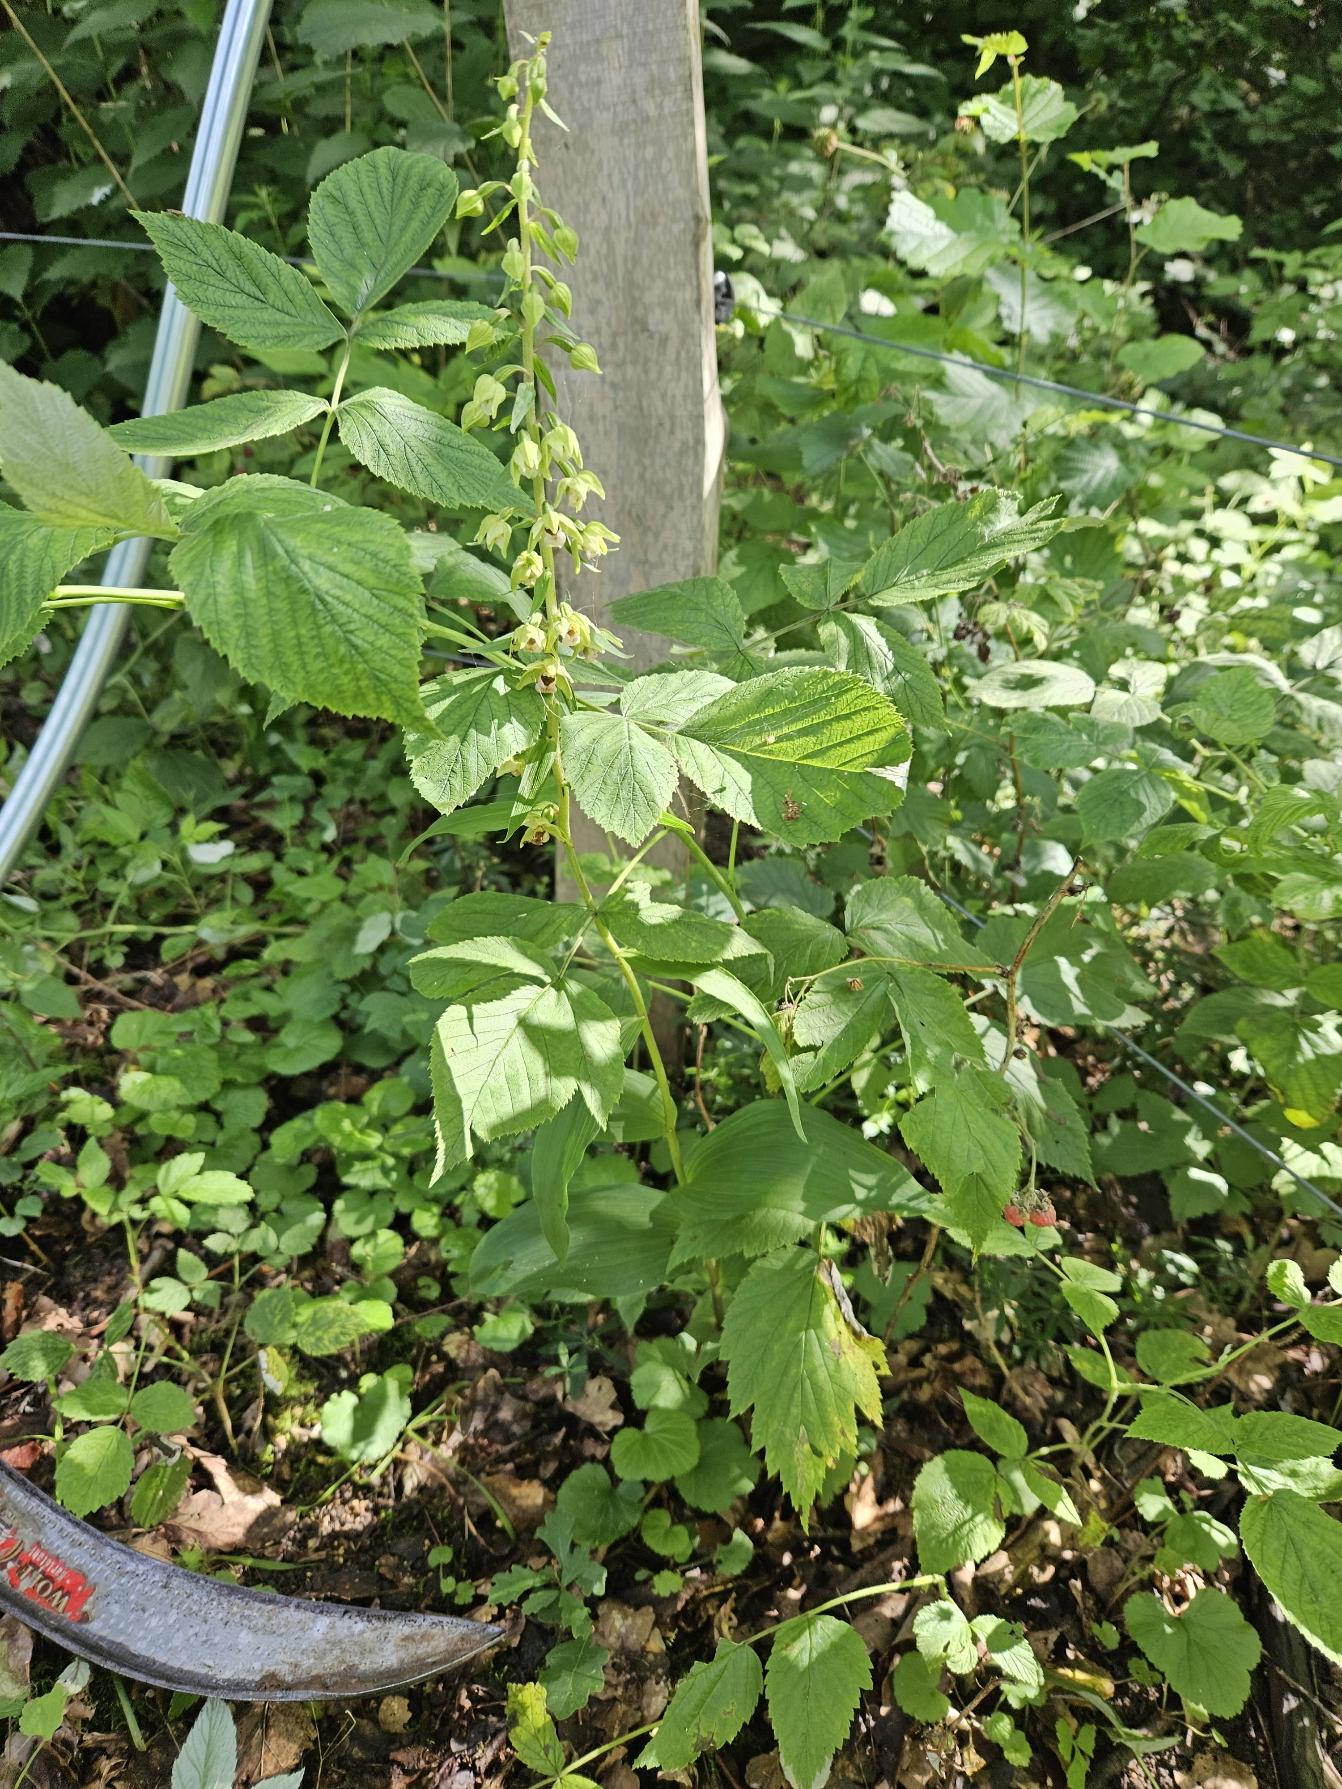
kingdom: Plantae
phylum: Tracheophyta
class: Liliopsida
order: Asparagales
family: Orchidaceae
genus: Epipactis
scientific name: Epipactis helleborine
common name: Skov-hullæbe
